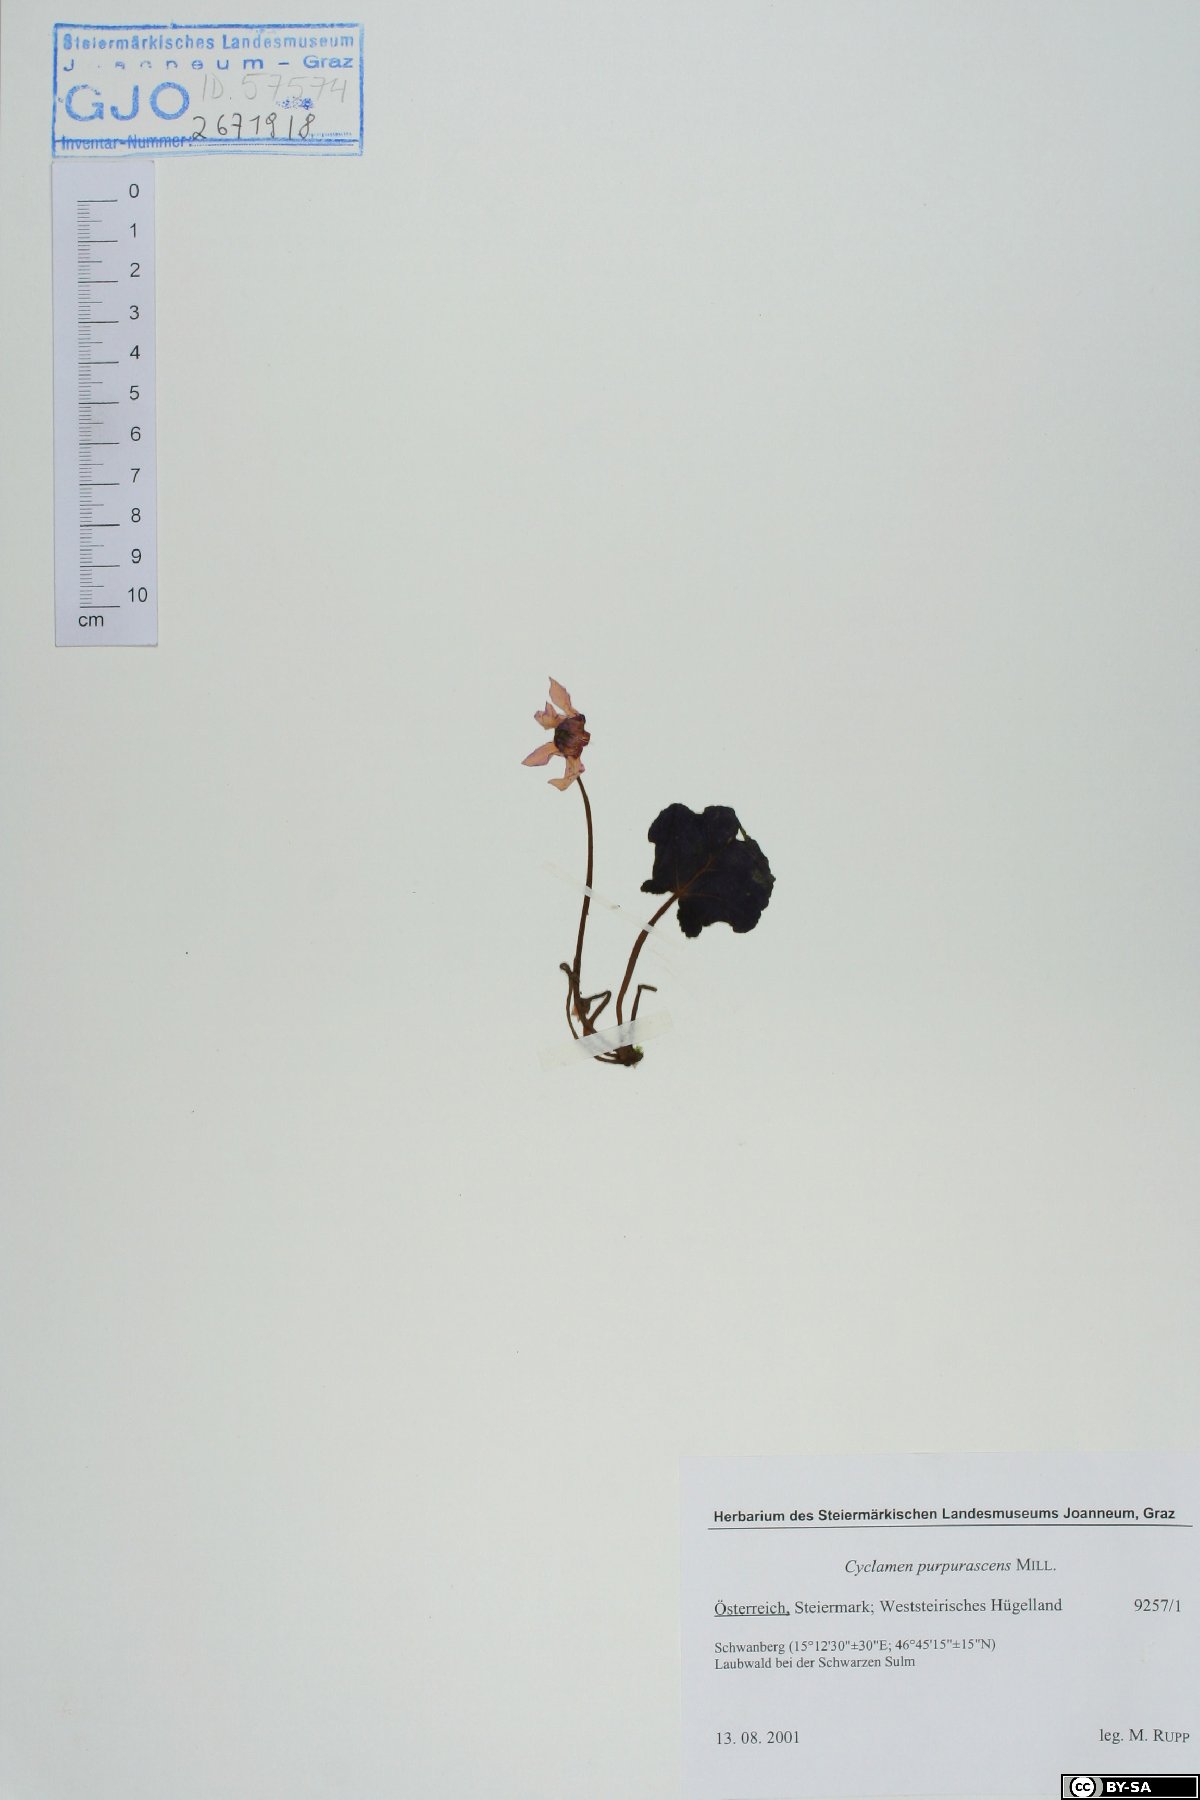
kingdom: Plantae
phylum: Tracheophyta
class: Magnoliopsida
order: Ericales
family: Primulaceae
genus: Cyclamen
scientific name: Cyclamen purpurascens
